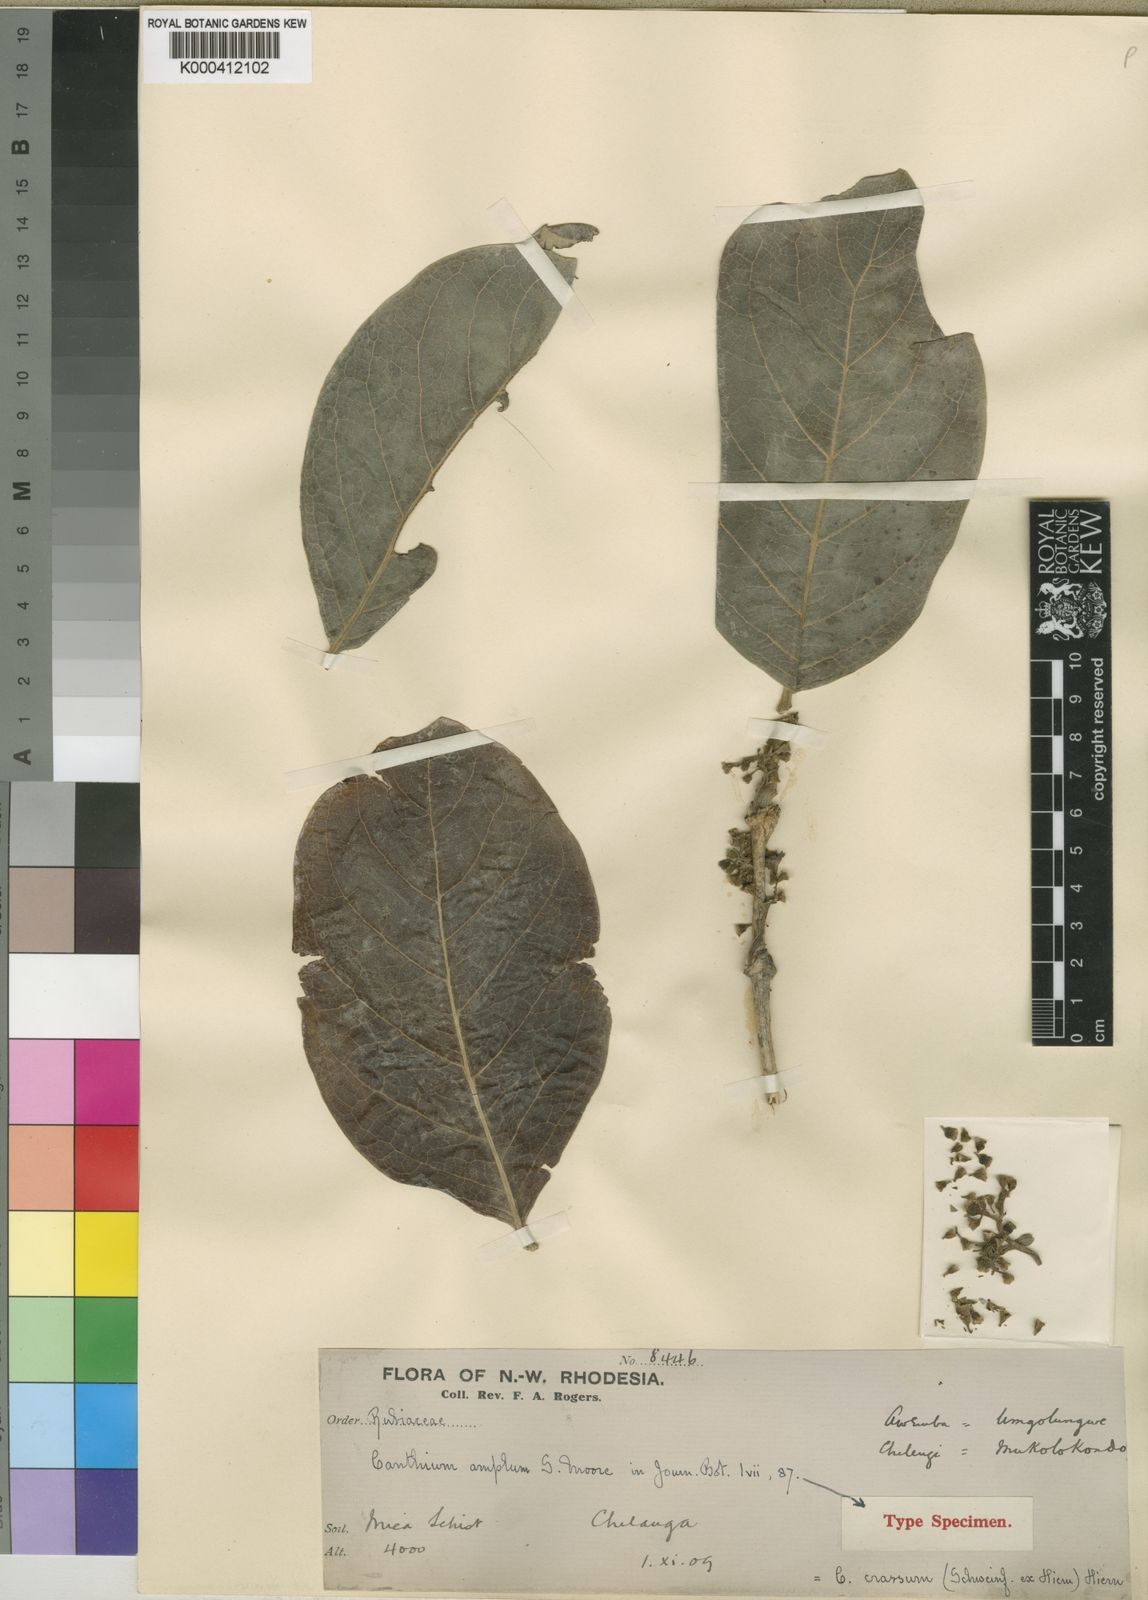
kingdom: Plantae
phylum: Tracheophyta
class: Magnoliopsida
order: Gentianales
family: Rubiaceae
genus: Multidentia
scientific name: Multidentia crassa
